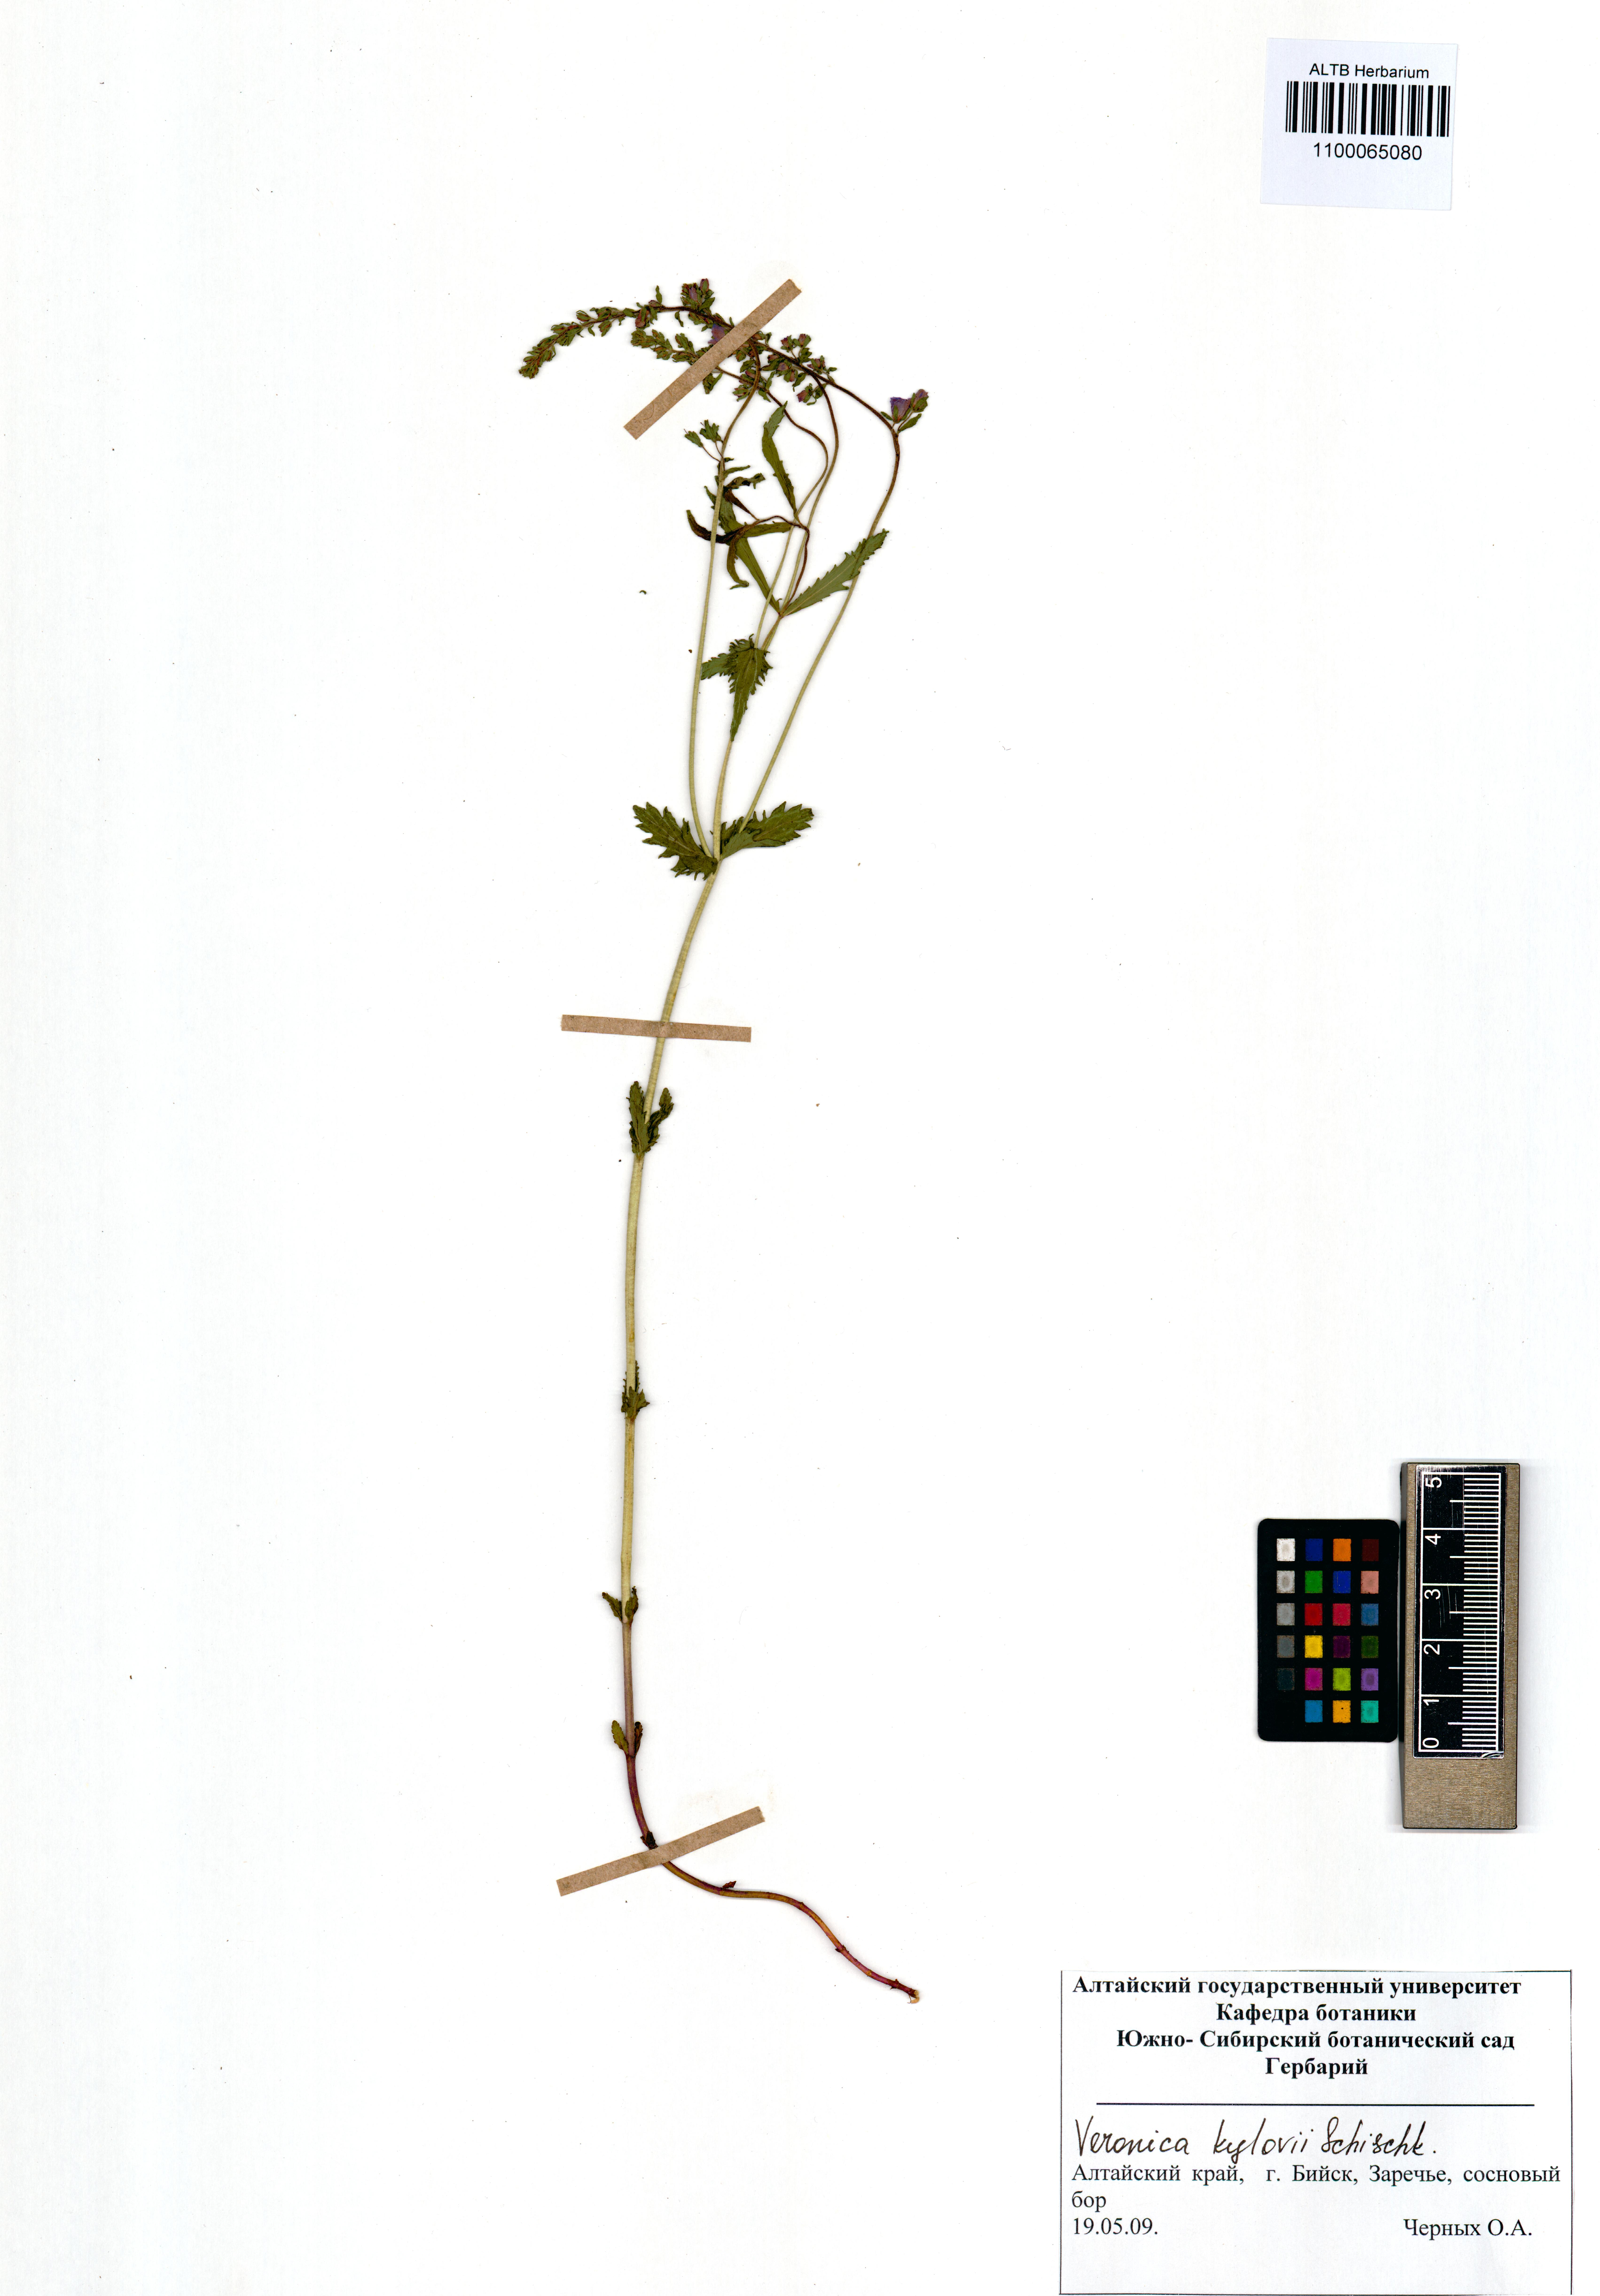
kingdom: Plantae
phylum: Tracheophyta
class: Magnoliopsida
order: Lamiales
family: Plantaginaceae
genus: Veronica
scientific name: Veronica krylovii
